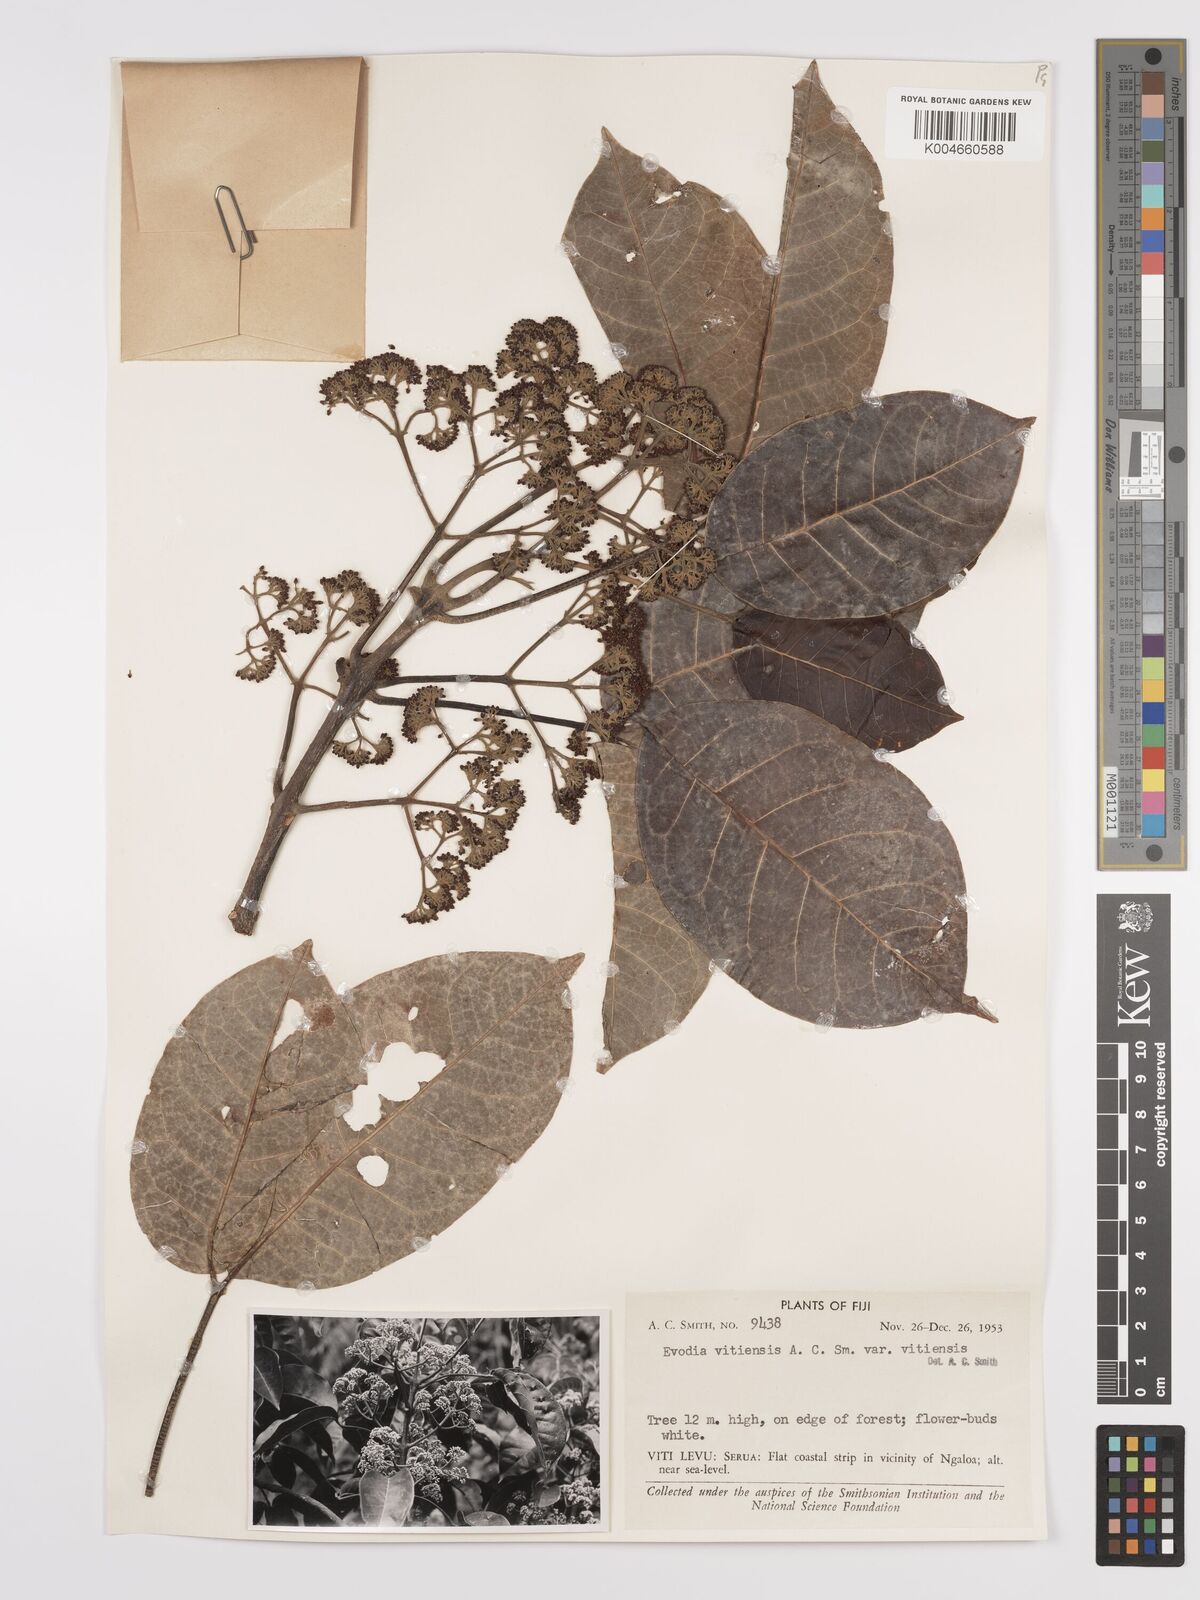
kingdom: Plantae
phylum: Tracheophyta
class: Magnoliopsida
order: Sapindales
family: Rutaceae
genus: Melicope
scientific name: Melicope cucullata
